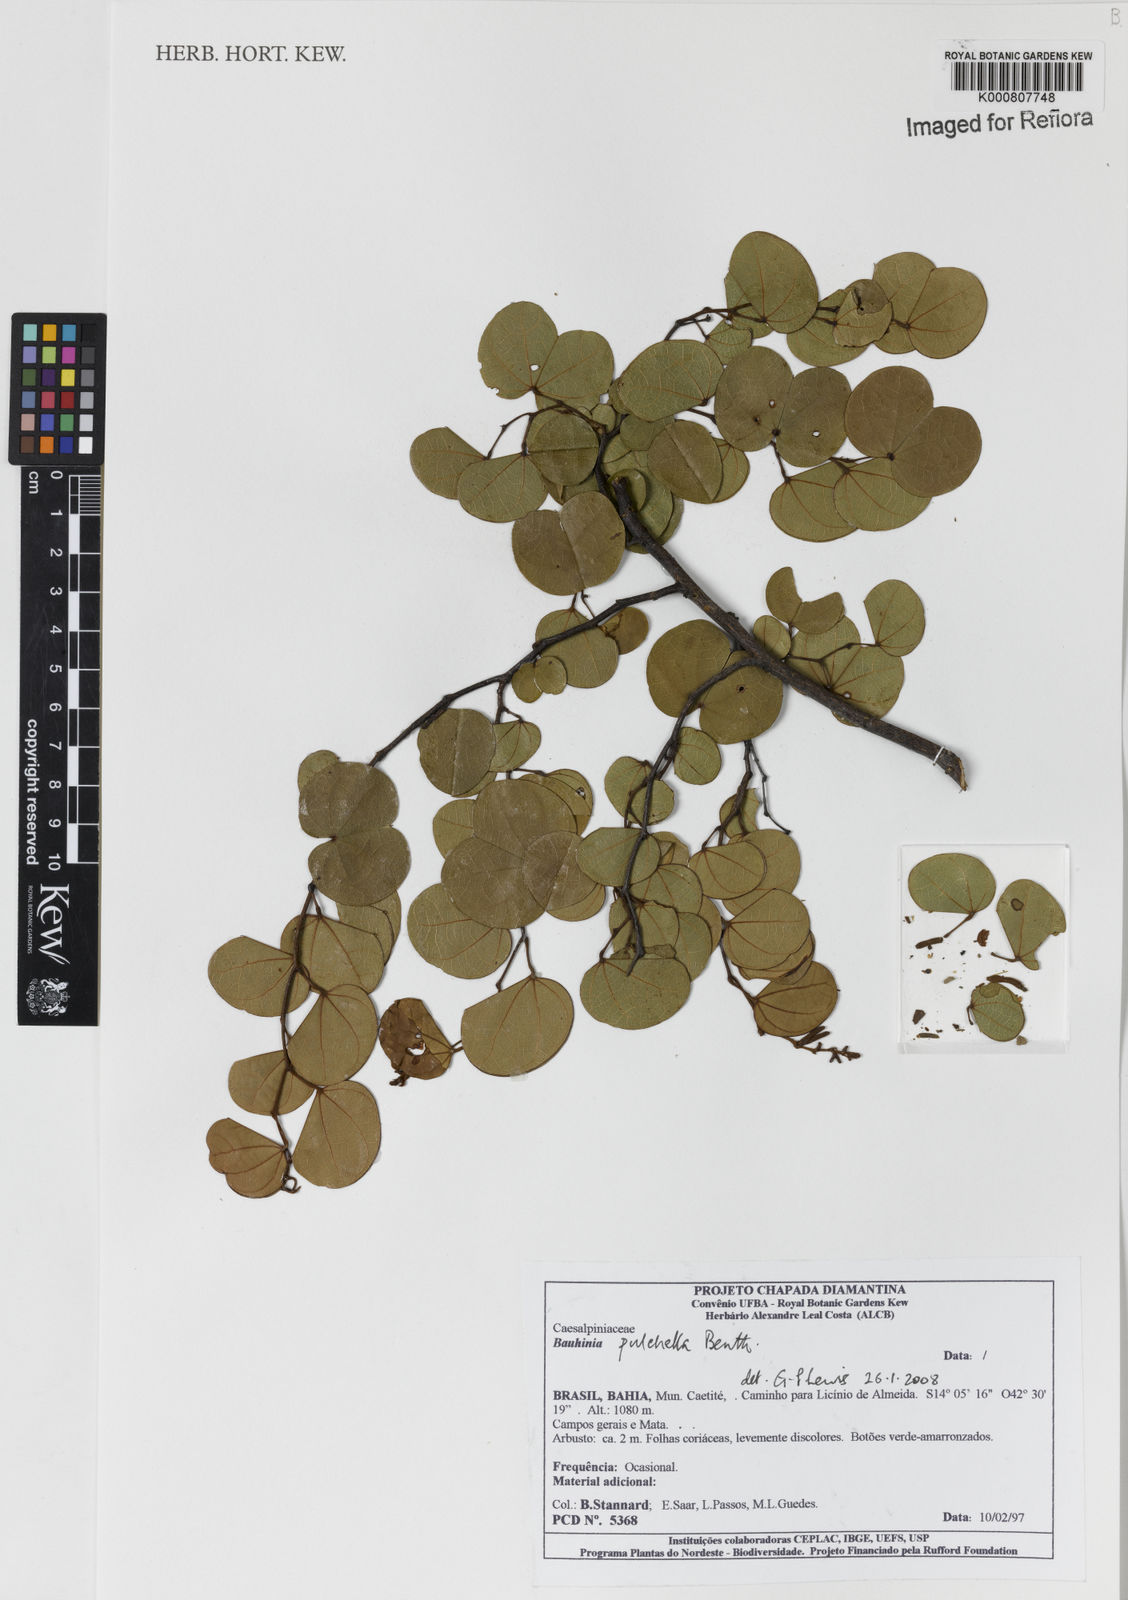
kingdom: Plantae
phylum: Tracheophyta
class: Magnoliopsida
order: Fabales
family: Fabaceae
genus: Bauhinia
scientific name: Bauhinia pulchella
